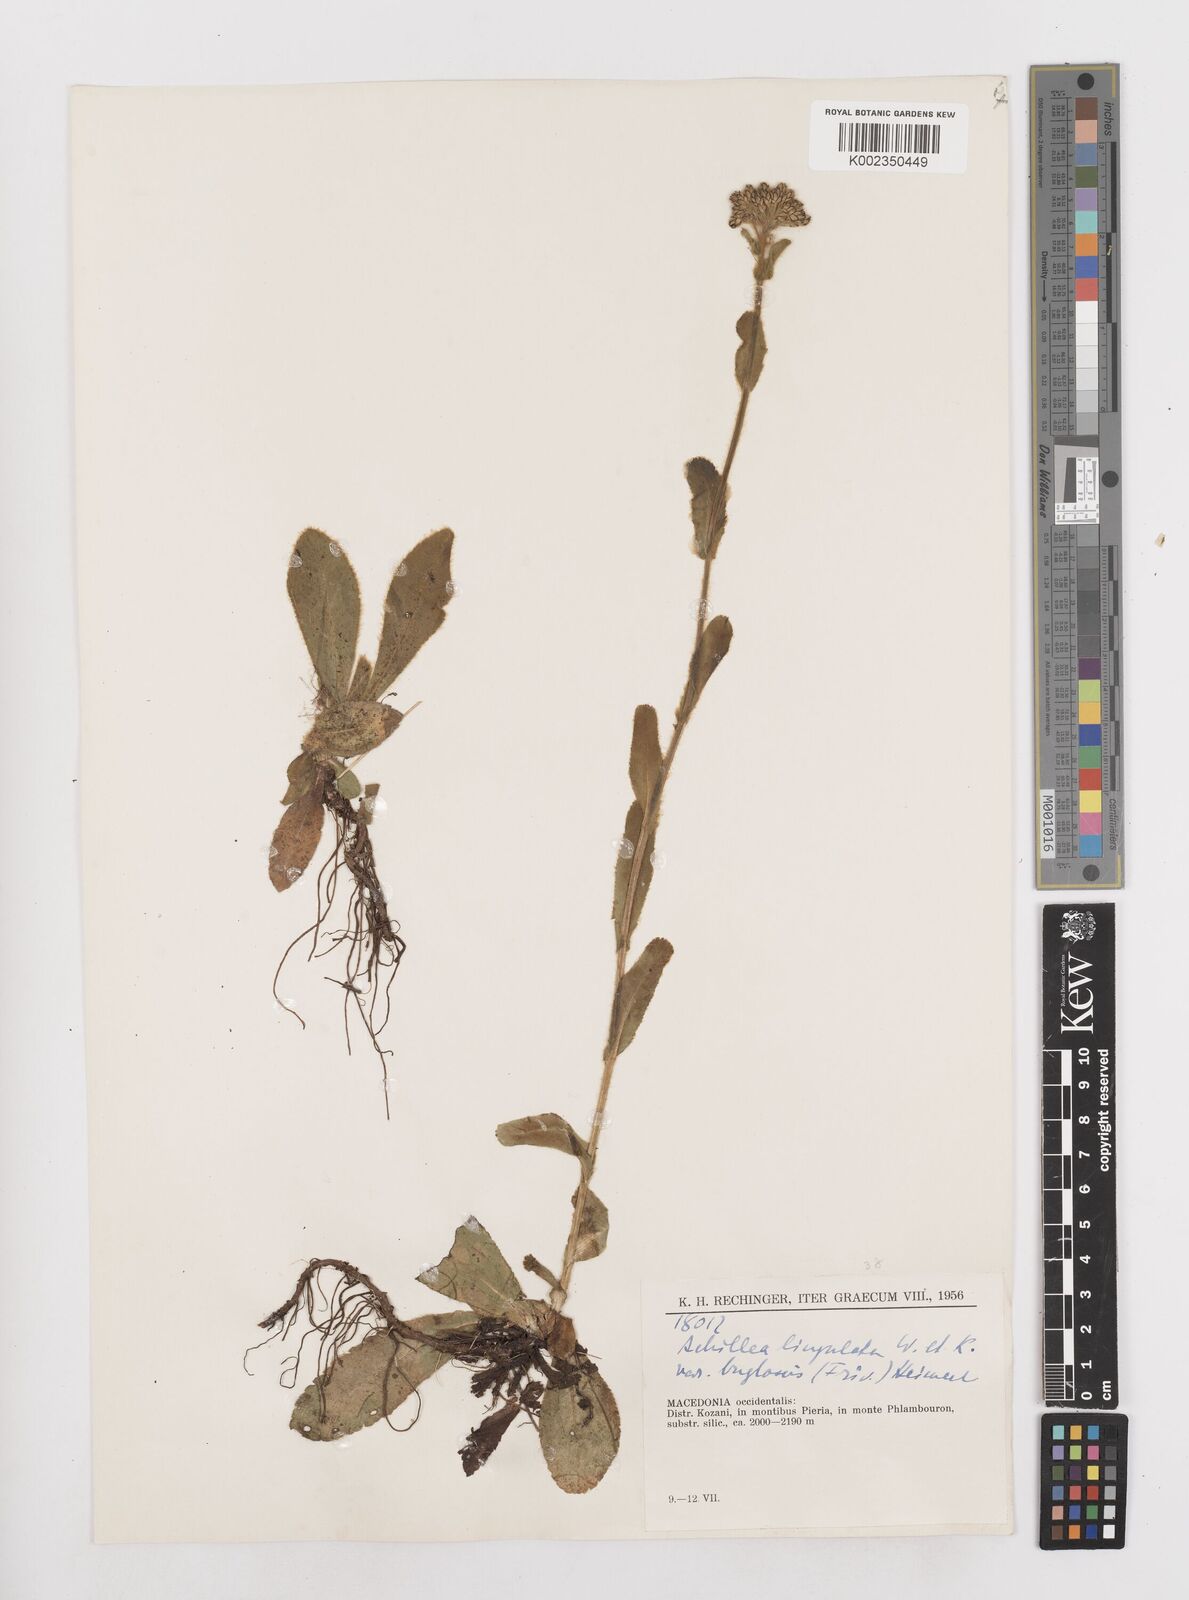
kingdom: Plantae
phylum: Tracheophyta
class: Magnoliopsida
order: Asterales
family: Asteraceae
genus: Achillea
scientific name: Achillea lingulata
